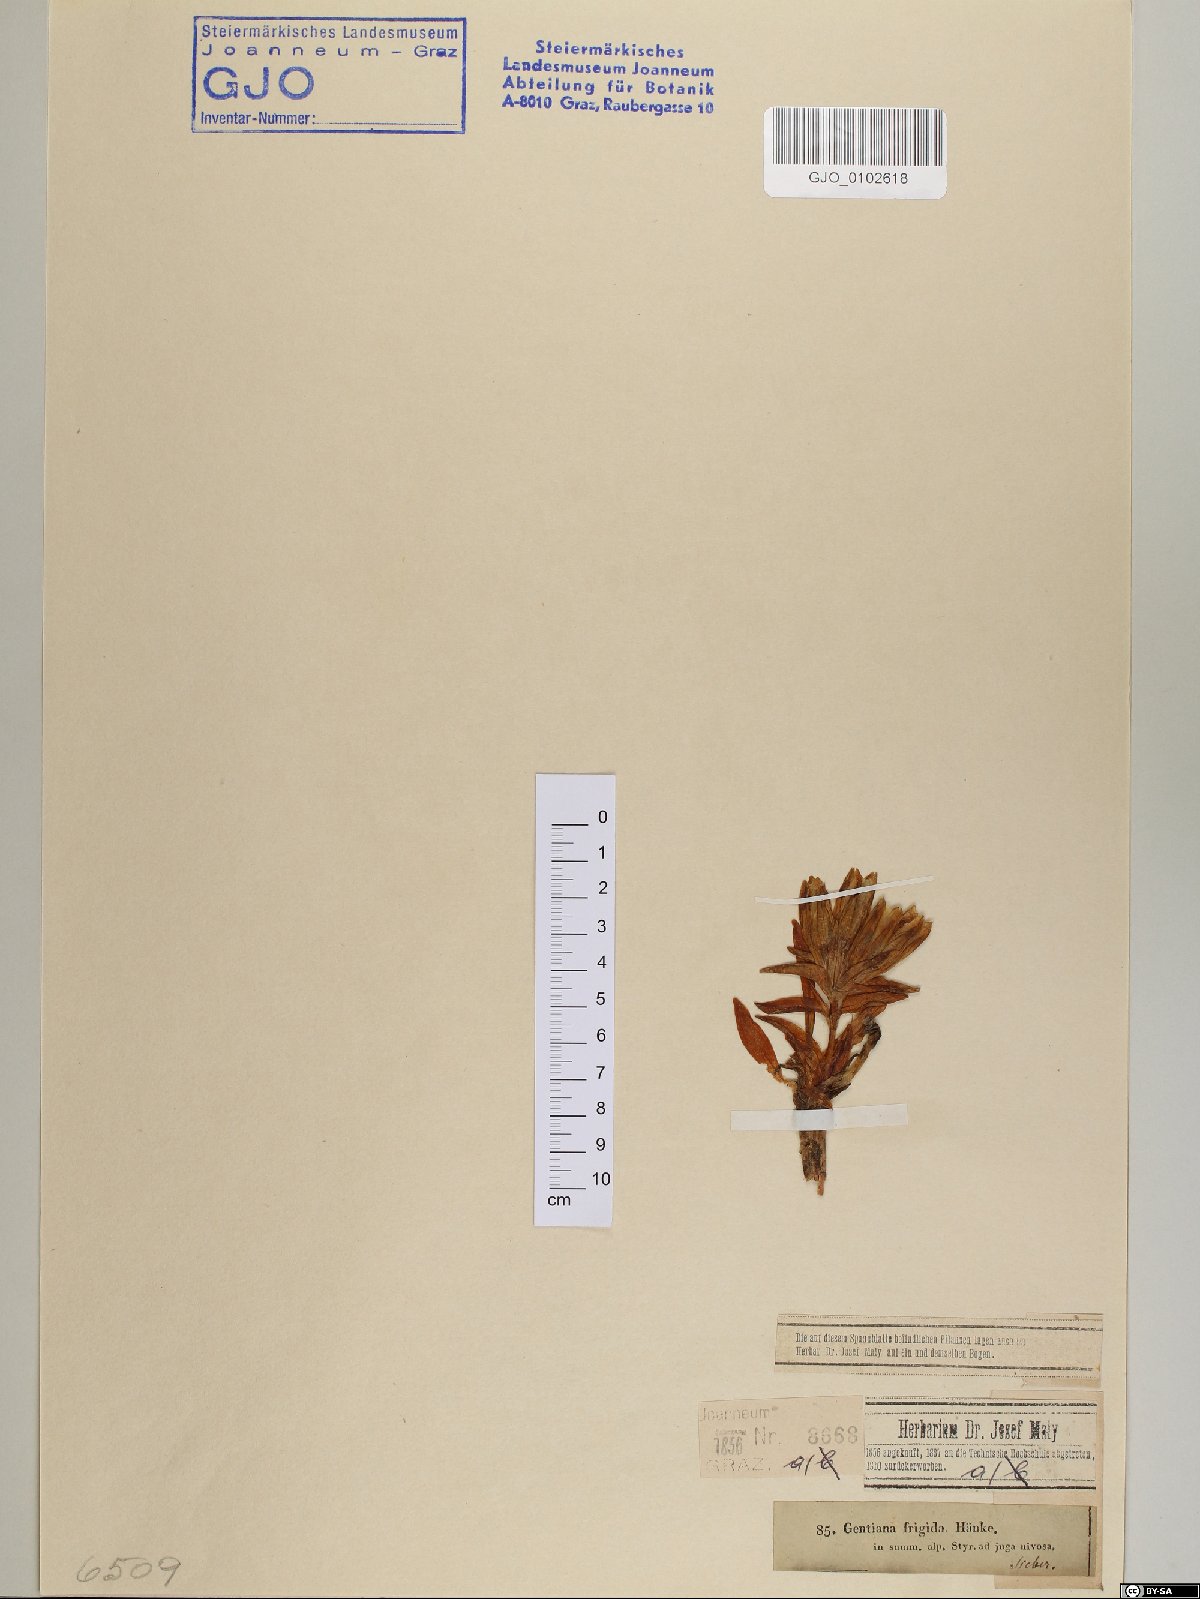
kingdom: Plantae
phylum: Tracheophyta
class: Magnoliopsida
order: Gentianales
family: Gentianaceae
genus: Gentiana
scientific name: Gentiana frigida
